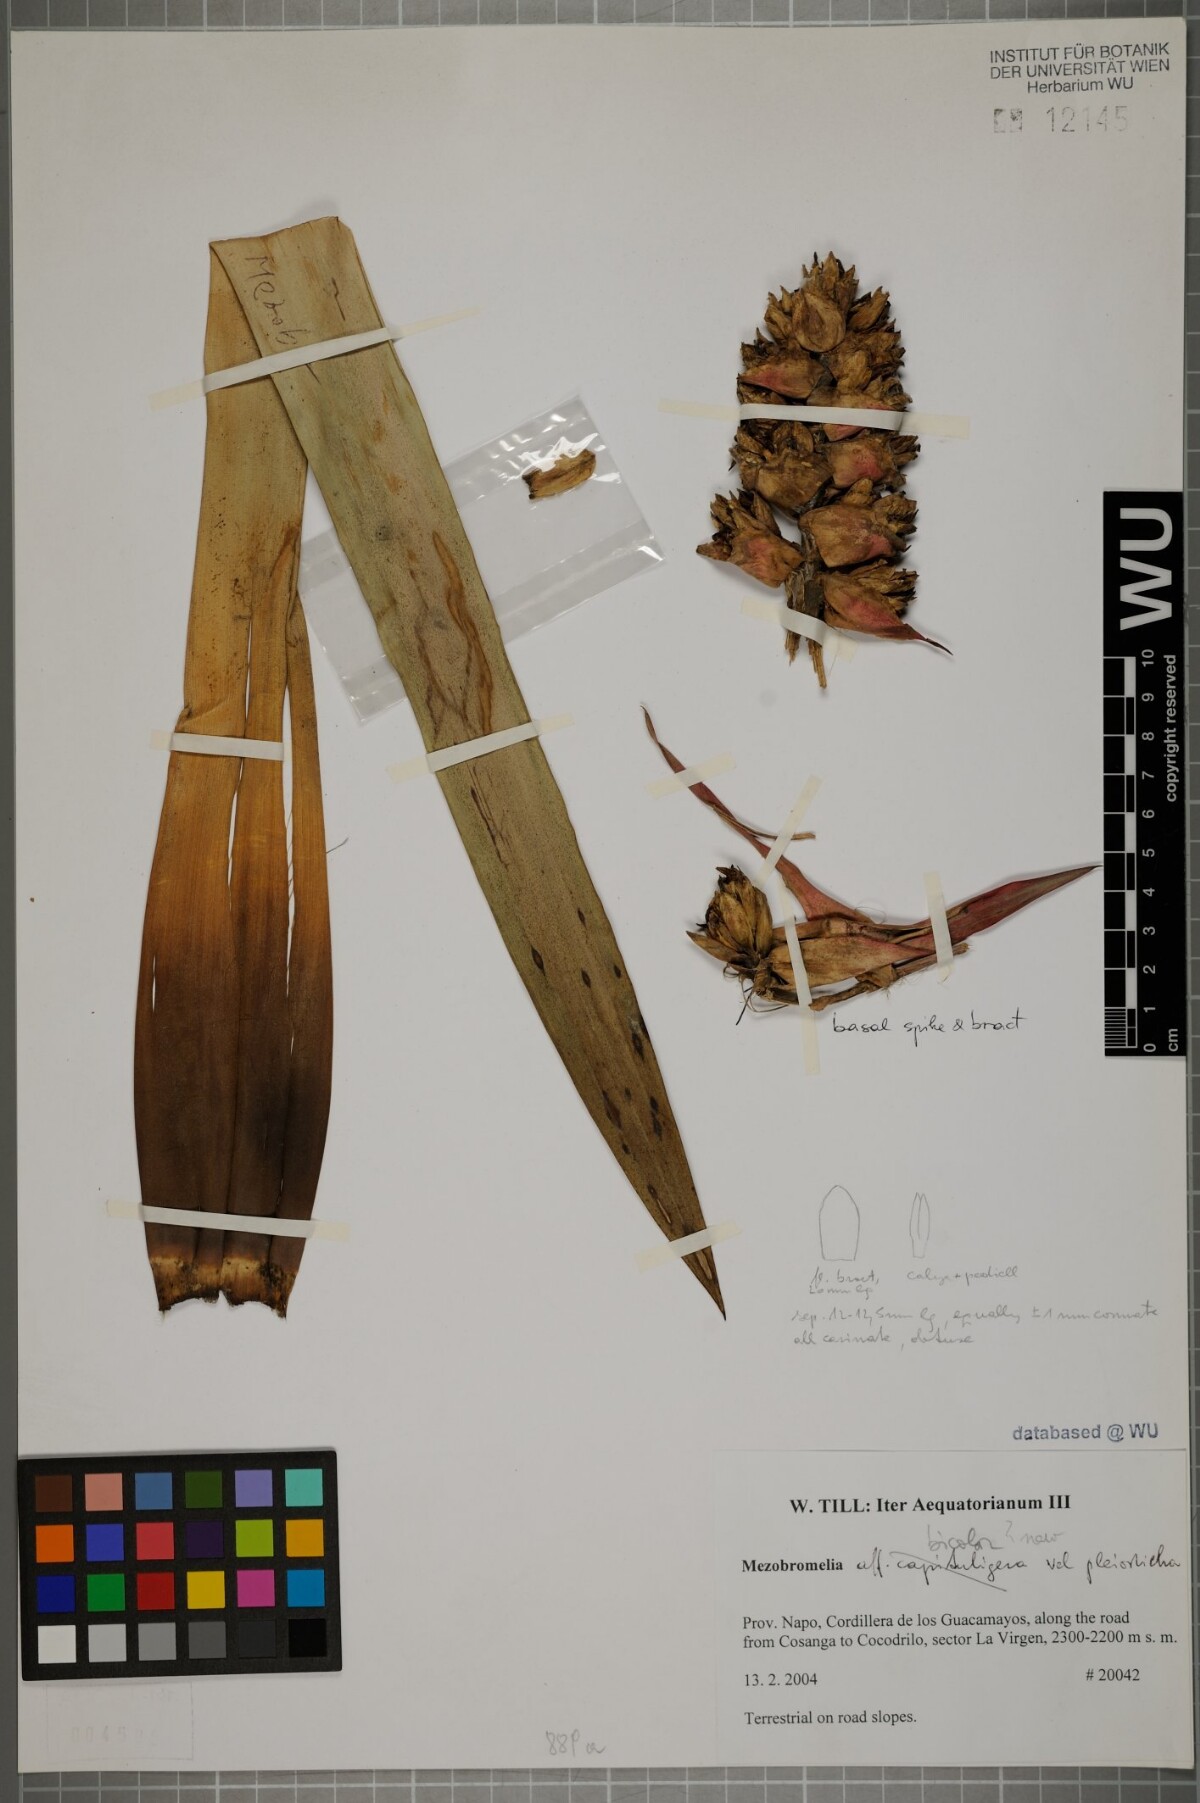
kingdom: Plantae
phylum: Tracheophyta
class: Liliopsida
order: Poales
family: Bromeliaceae
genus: Cipuropsis
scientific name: Cipuropsis bicolor
